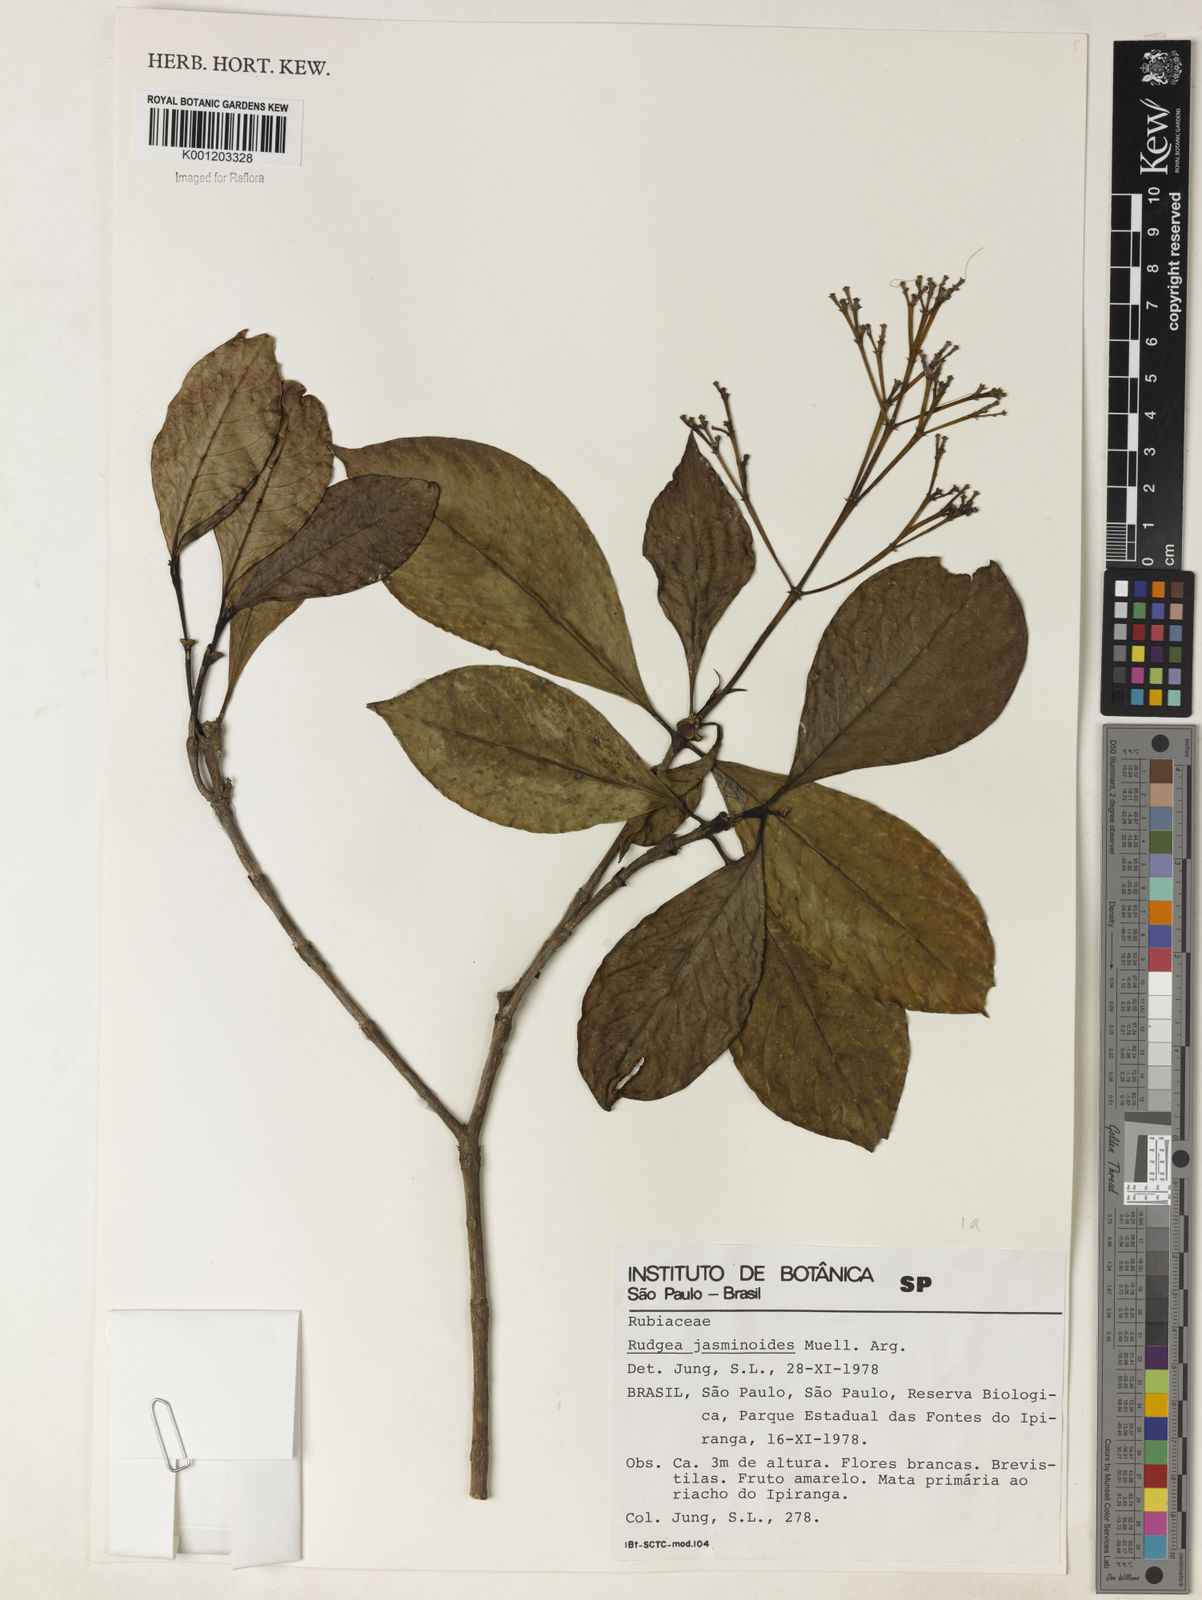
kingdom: Plantae
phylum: Tracheophyta
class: Magnoliopsida
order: Gentianales
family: Rubiaceae
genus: Rudgea
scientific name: Rudgea
